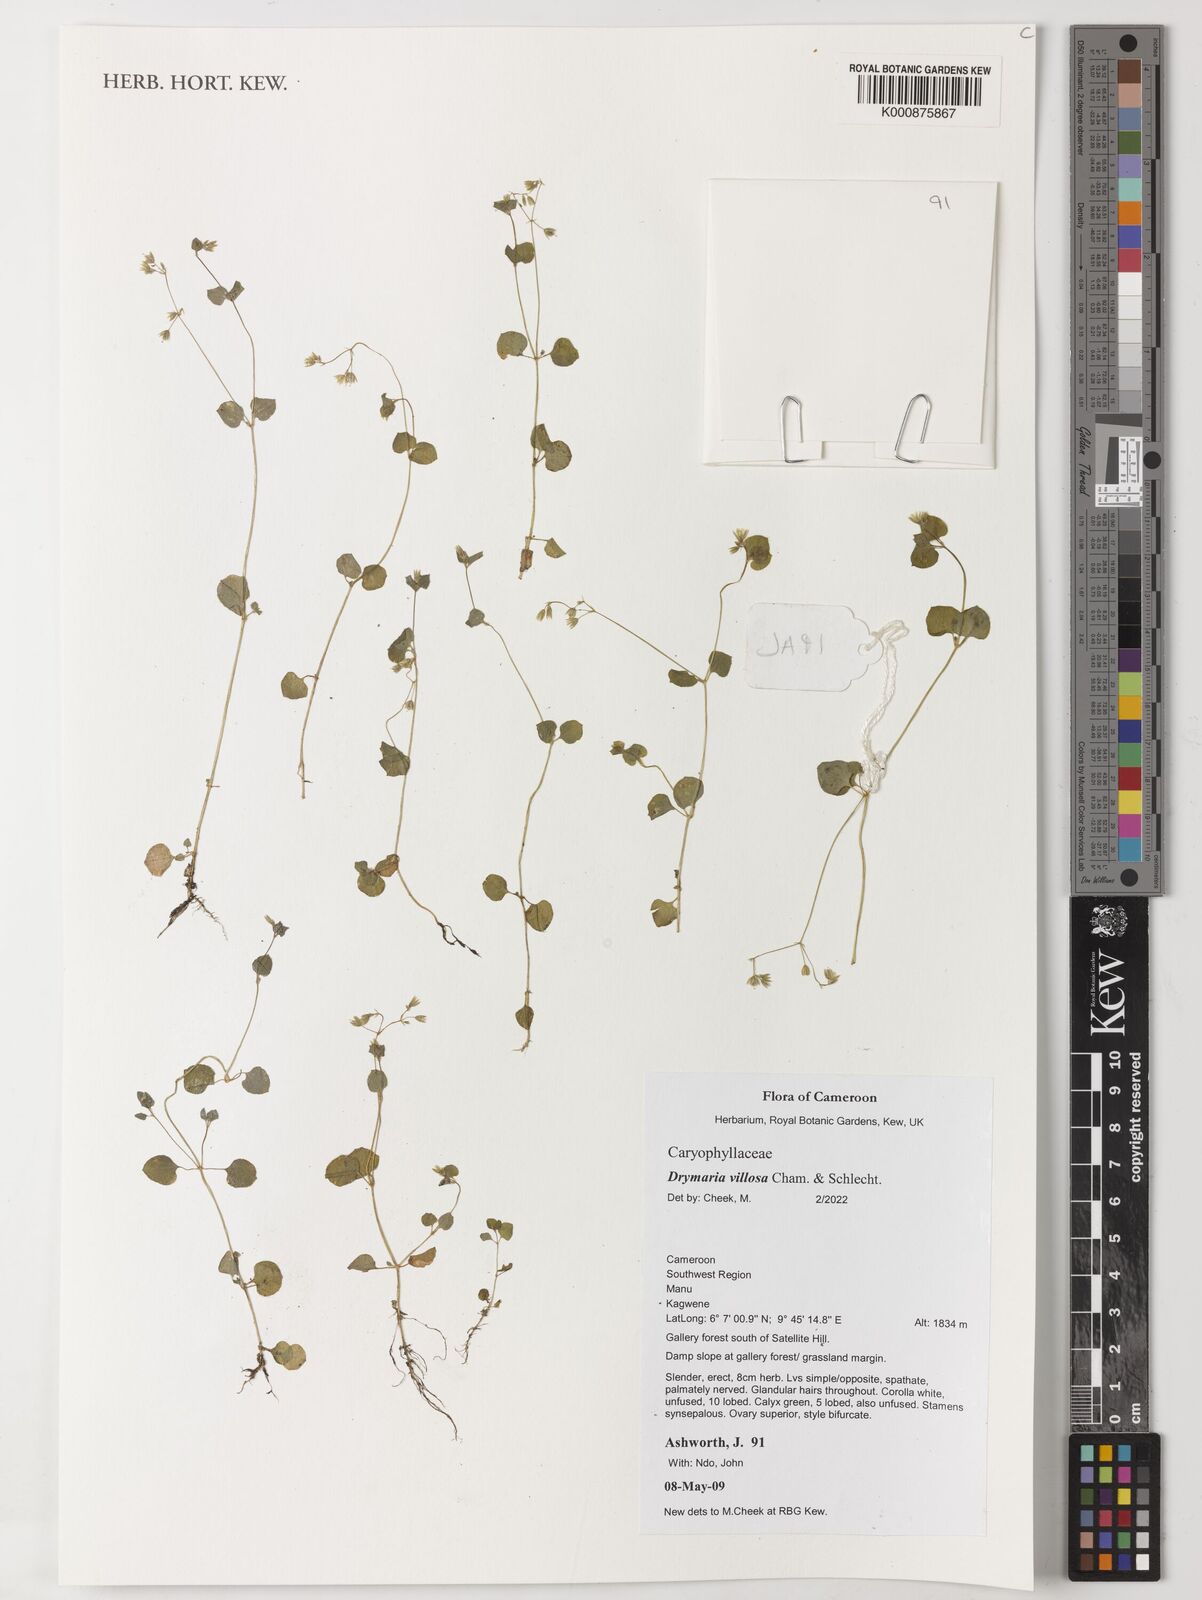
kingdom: Plantae
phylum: Tracheophyta
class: Magnoliopsida
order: Caryophyllales
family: Caryophyllaceae
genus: Drymaria
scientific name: Drymaria villosa
